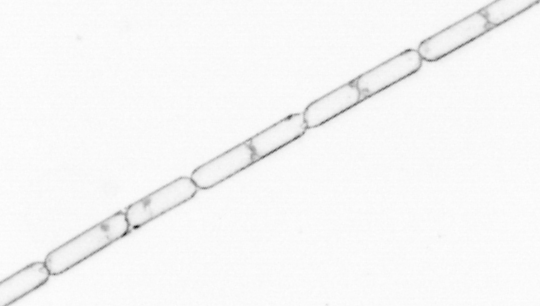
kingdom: Chromista
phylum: Ochrophyta
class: Bacillariophyceae
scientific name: Bacillariophyceae
